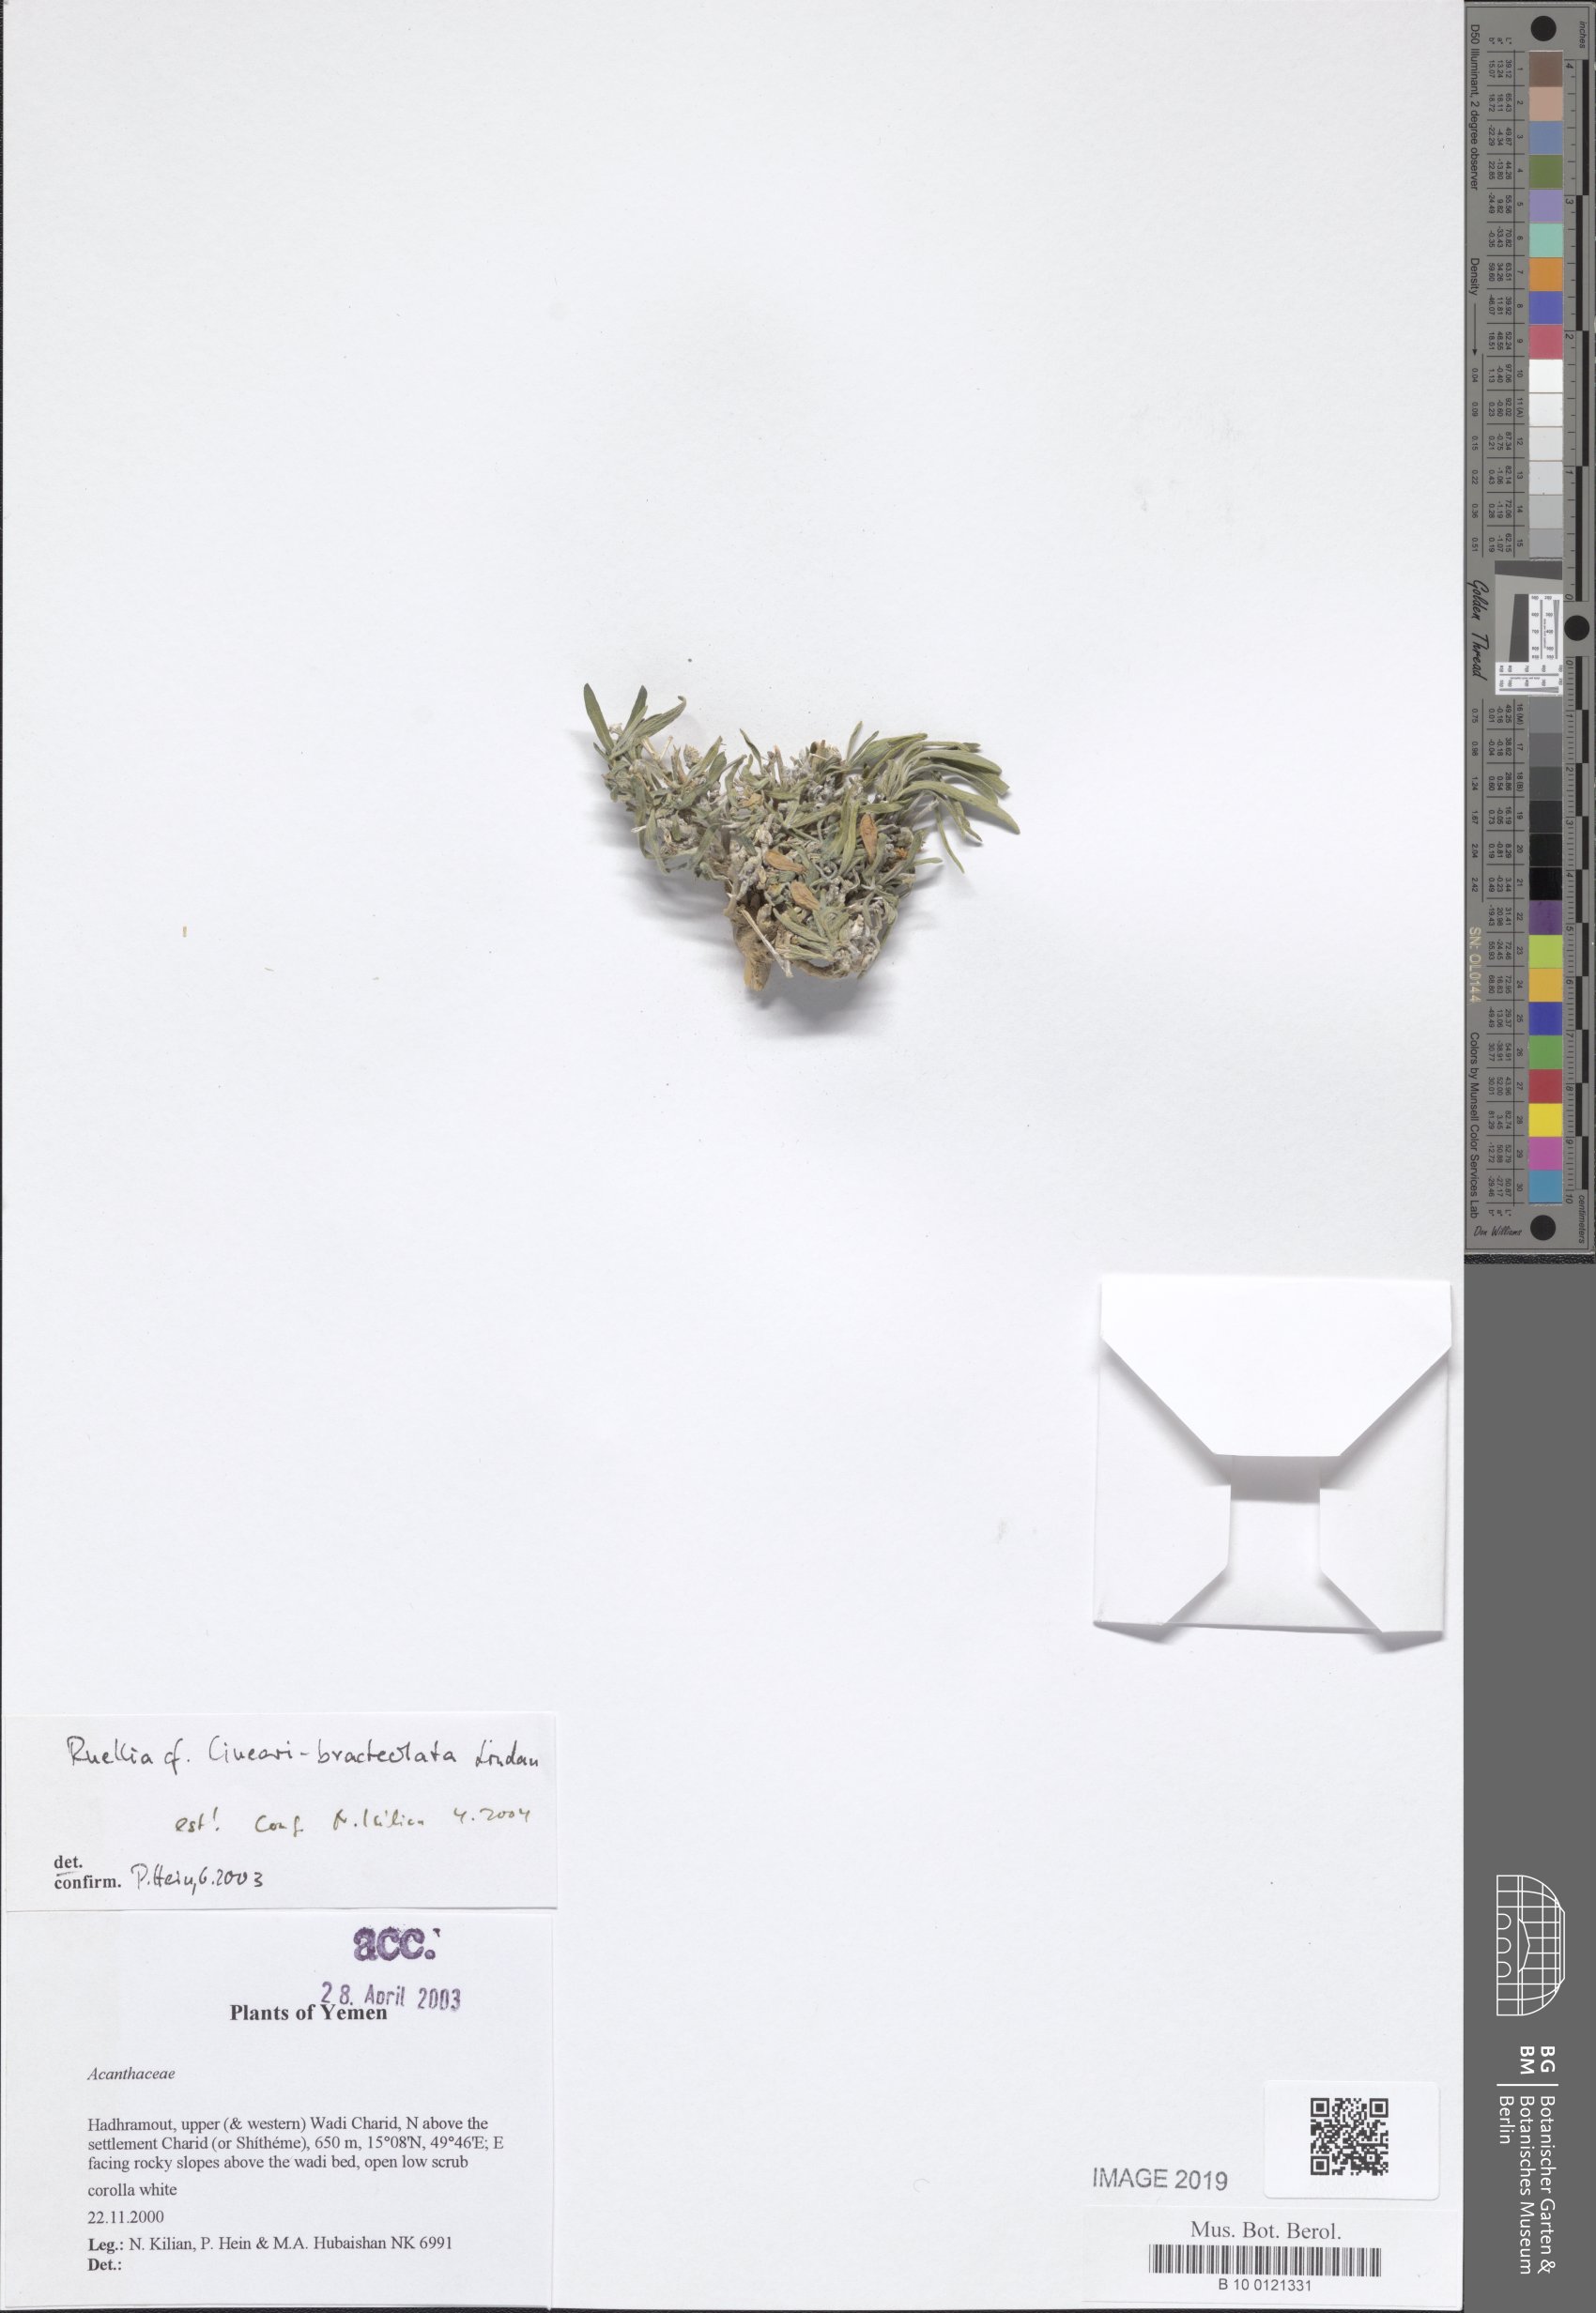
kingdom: Plantae
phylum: Tracheophyta
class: Magnoliopsida
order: Lamiales
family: Acanthaceae
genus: Ruellia
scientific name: Ruellia linearibracteolata
